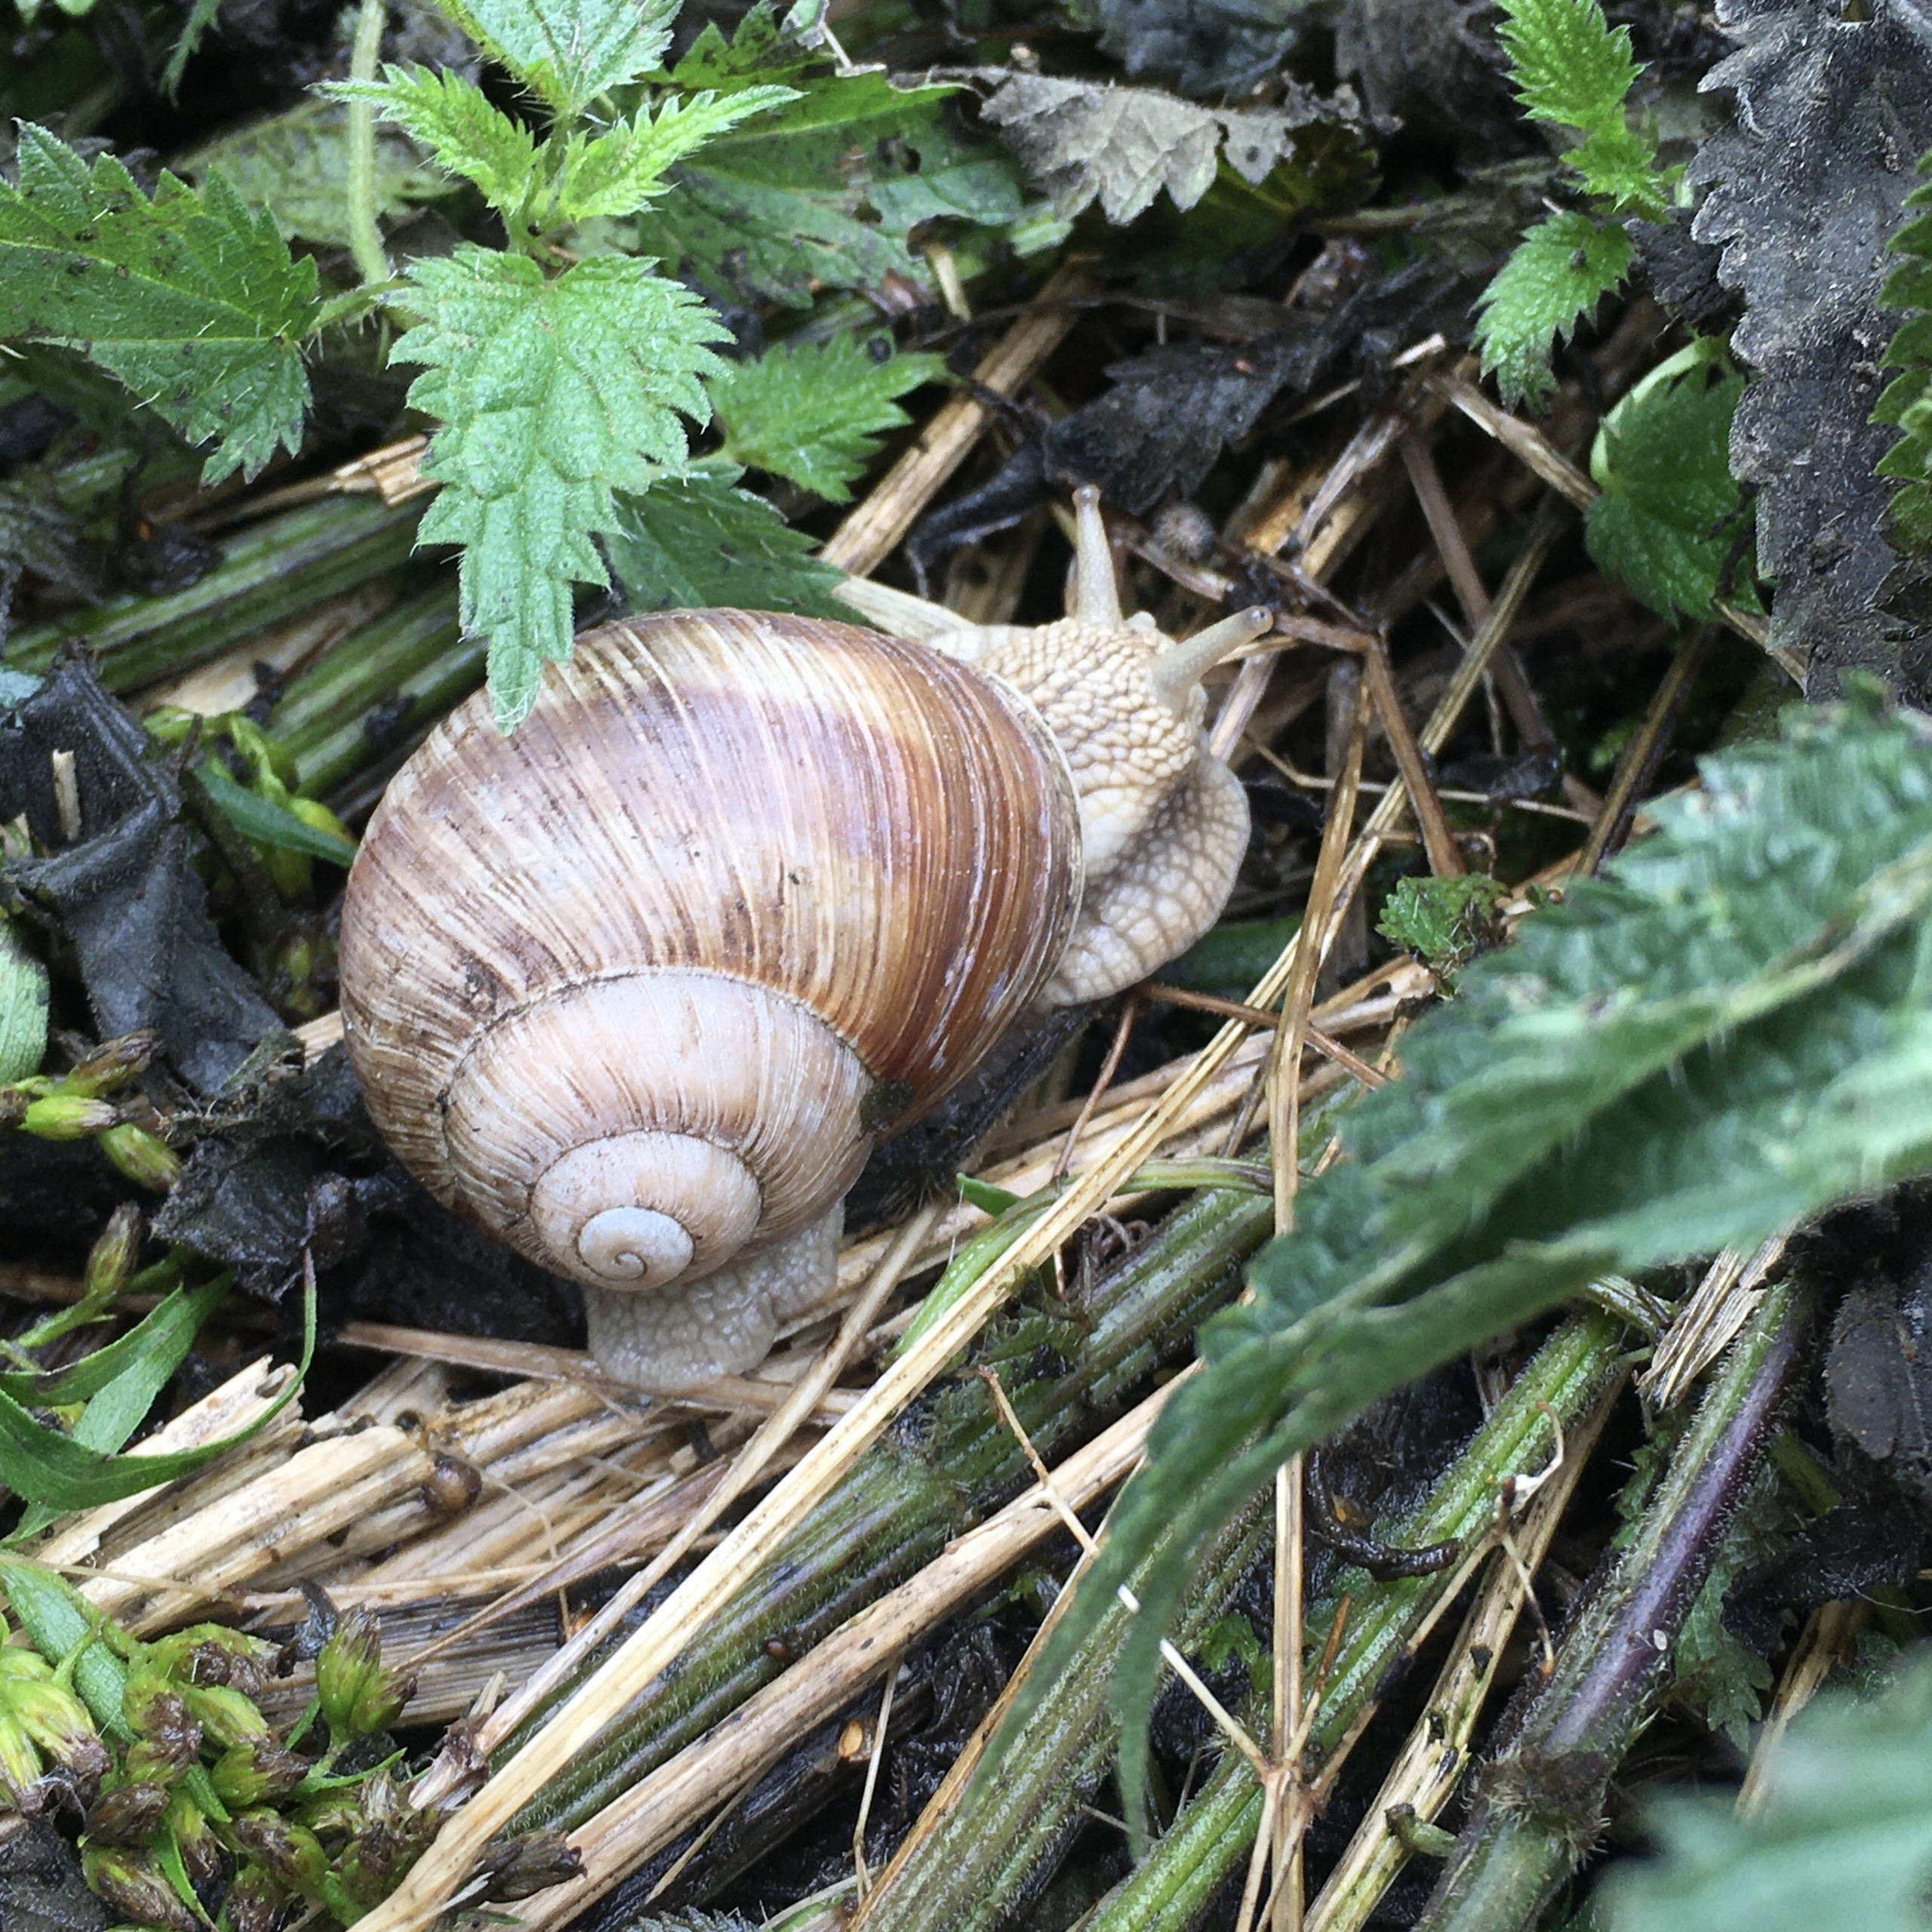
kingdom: Animalia
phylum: Mollusca
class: Gastropoda
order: Stylommatophora
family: Helicidae
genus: Helix
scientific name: Helix pomatia
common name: Vinbjergsnegl
